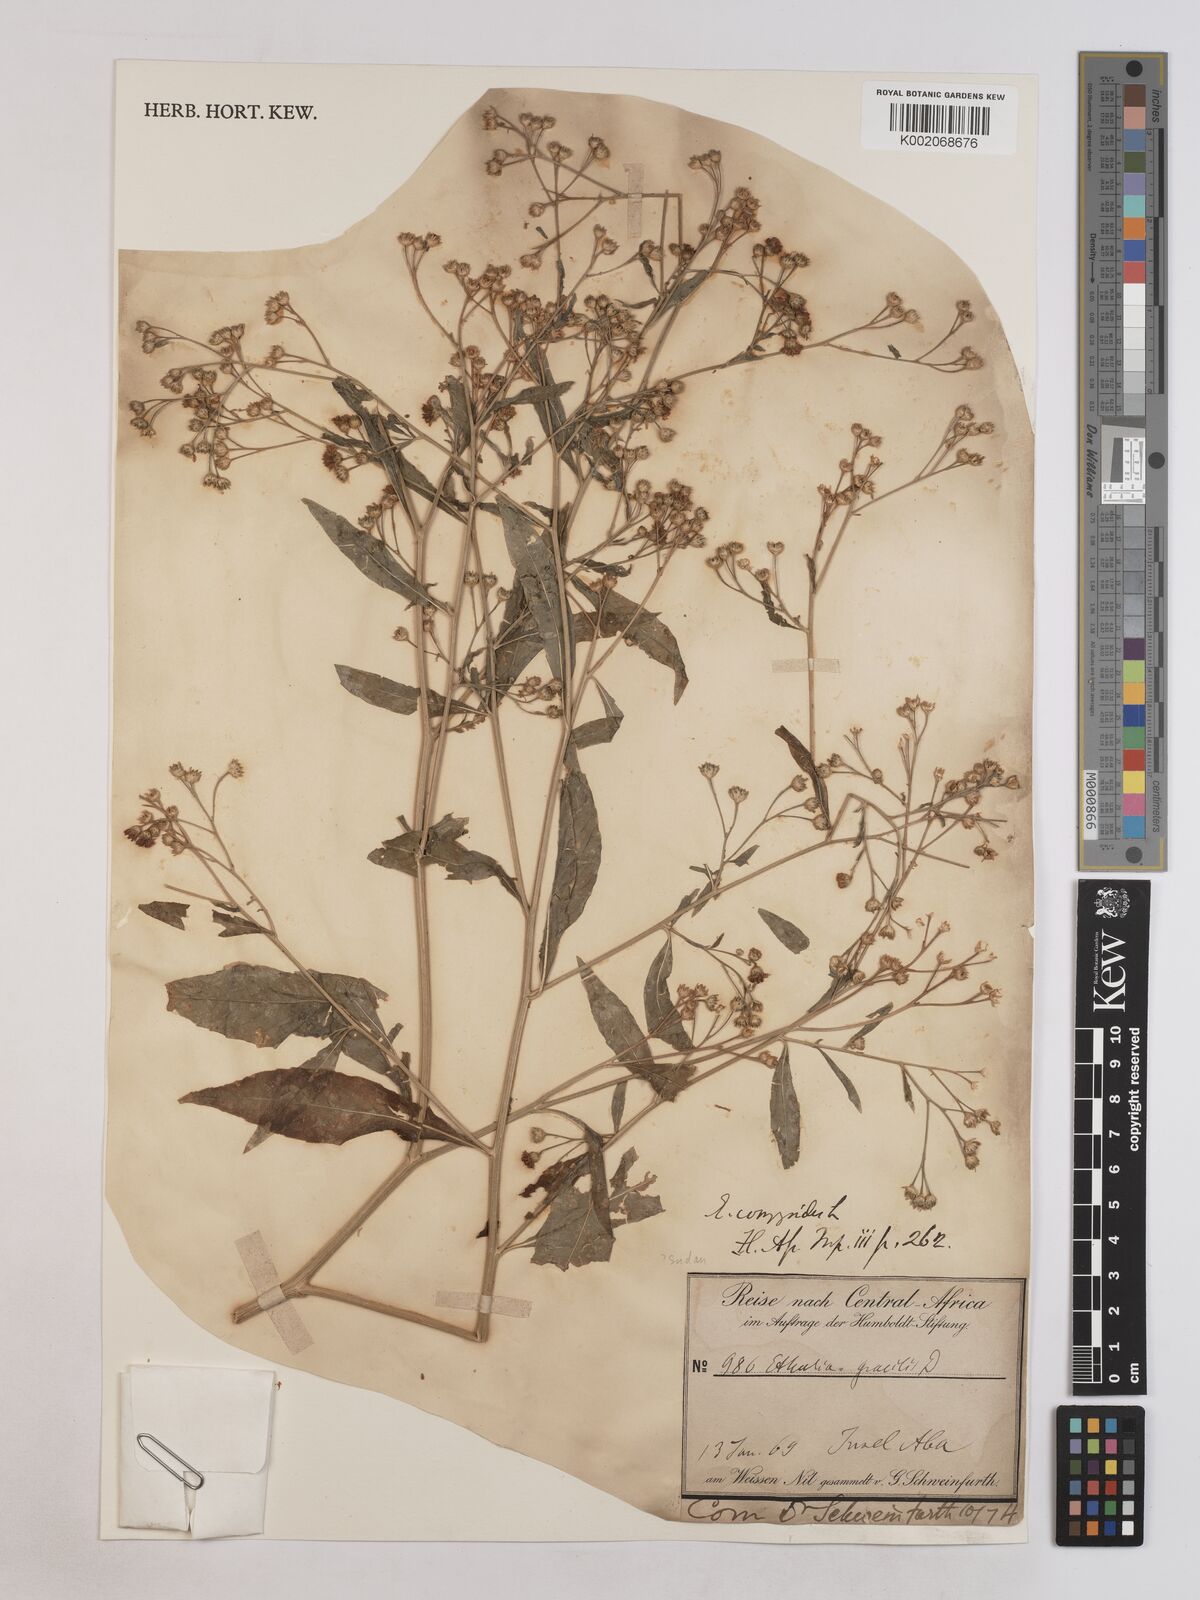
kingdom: Plantae
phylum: Tracheophyta
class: Magnoliopsida
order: Asterales
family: Asteraceae
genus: Ethulia
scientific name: Ethulia gracilis
